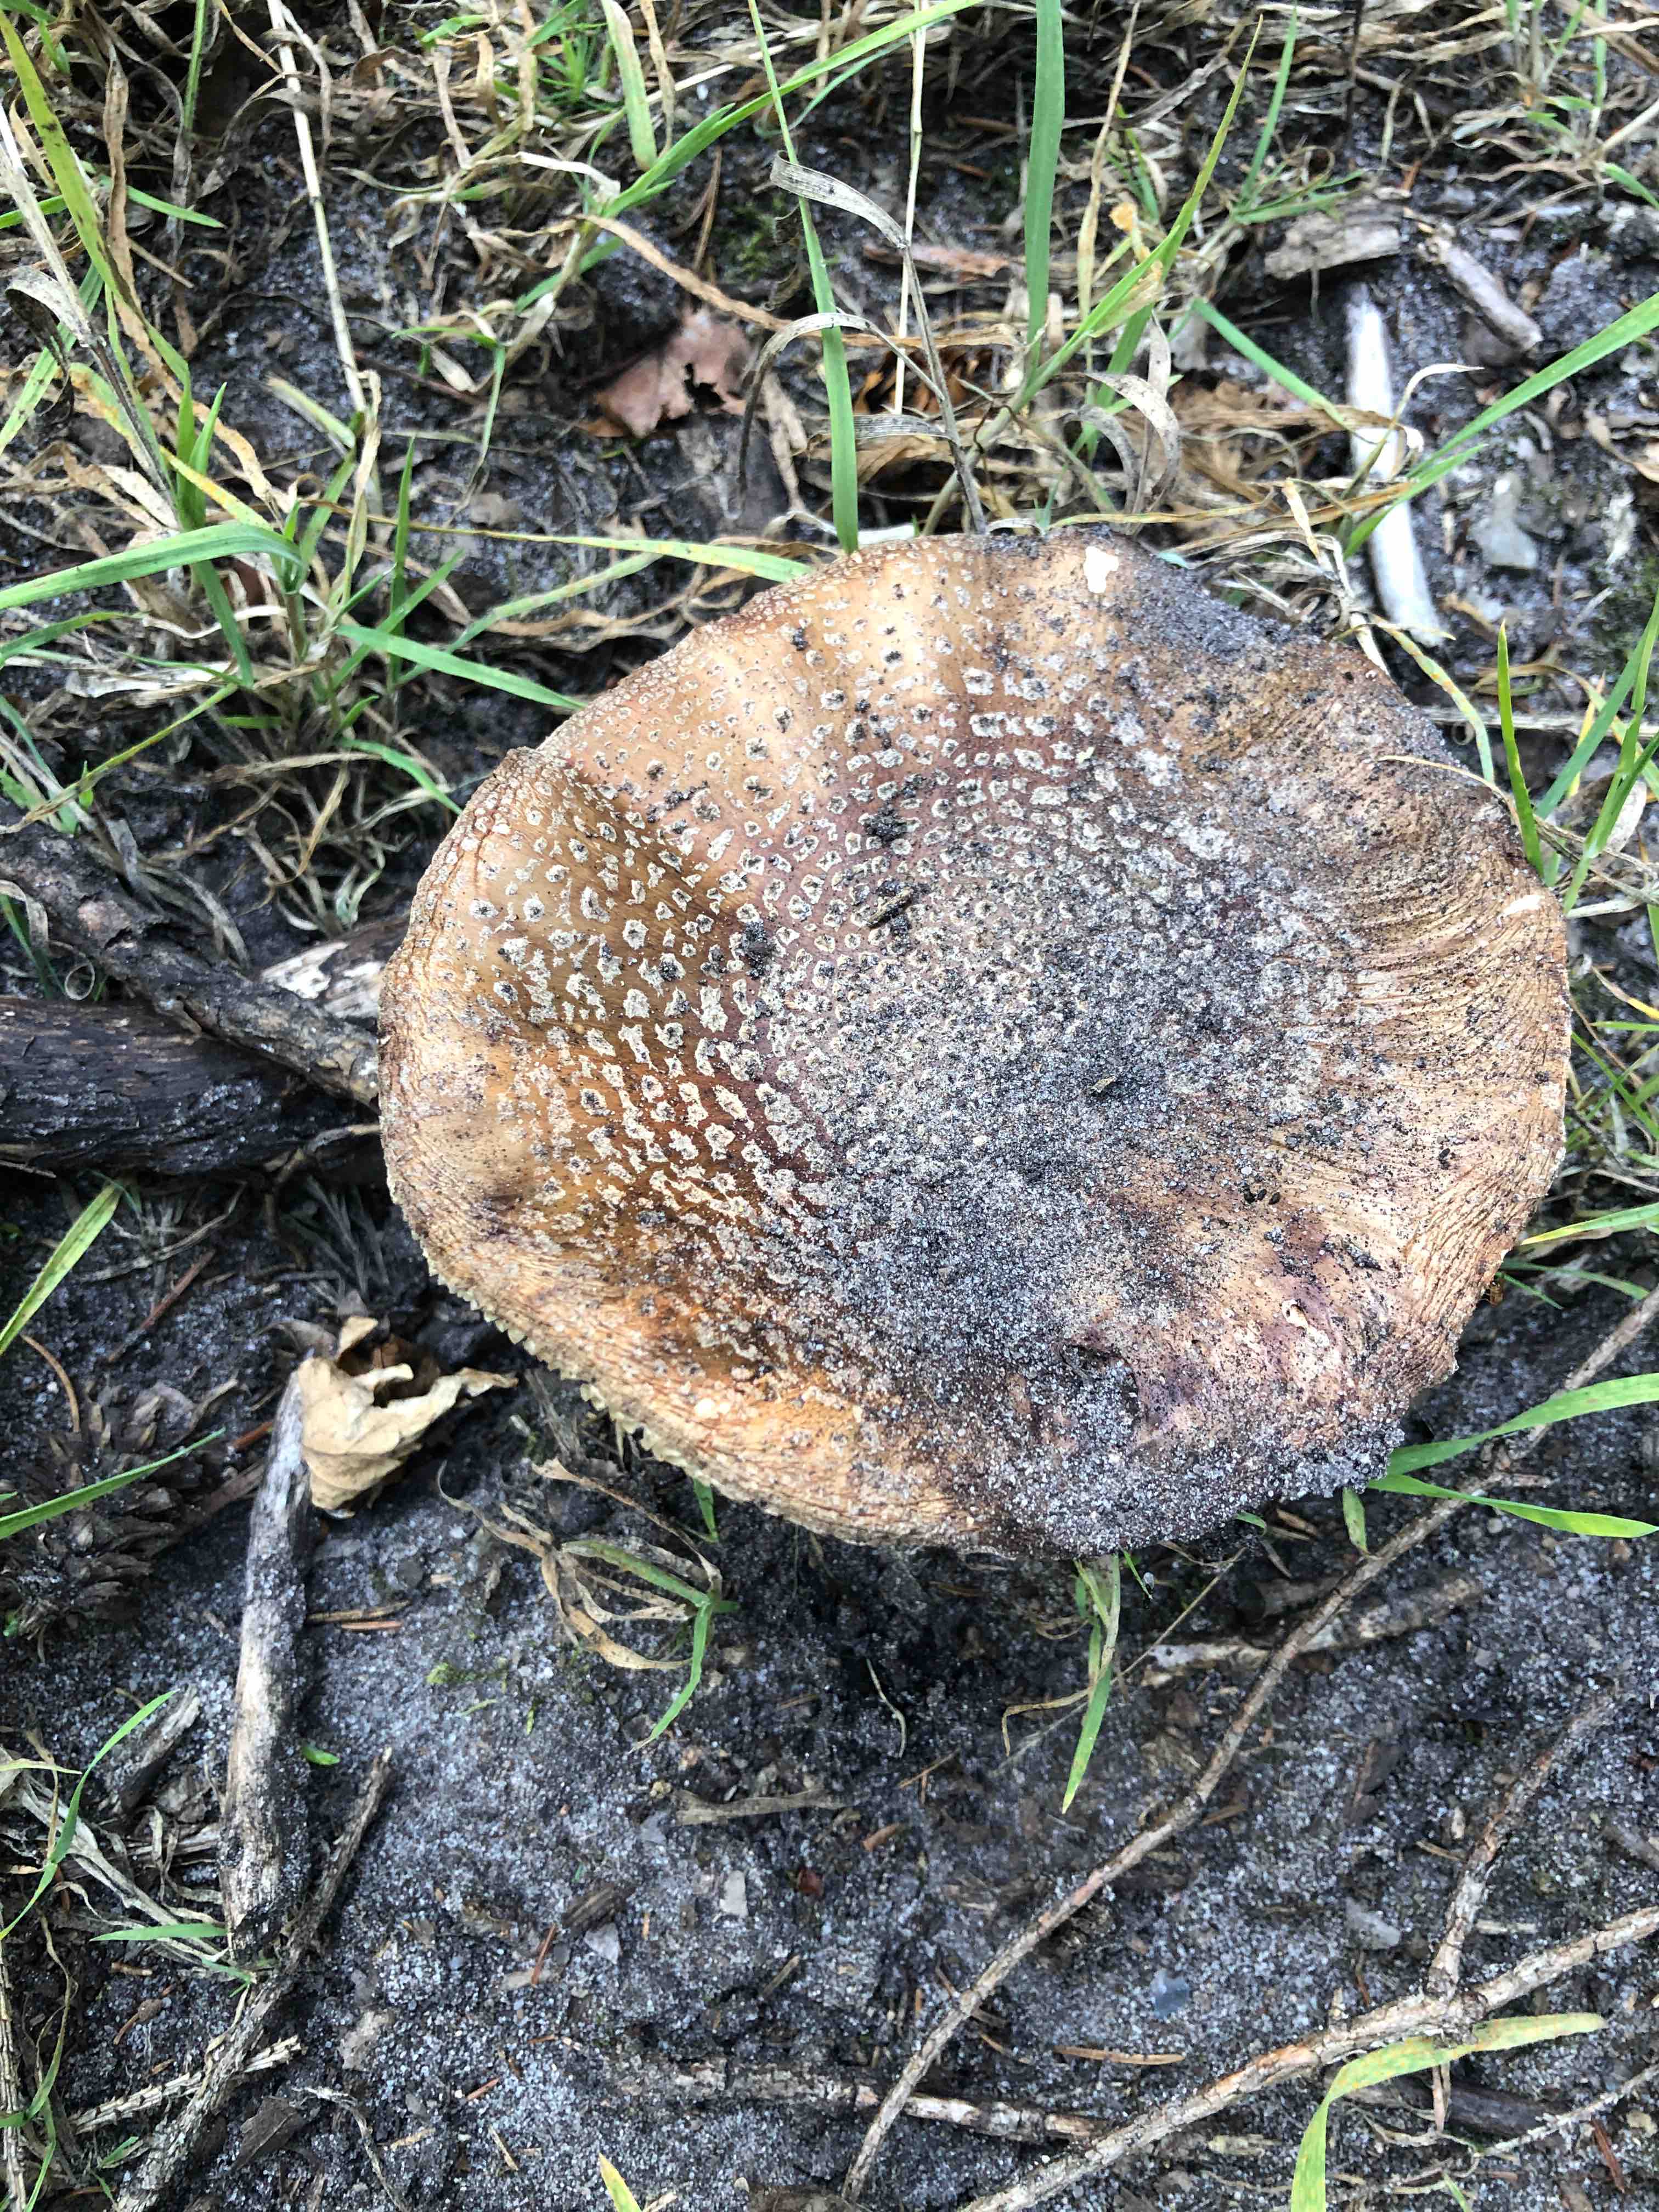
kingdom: Fungi
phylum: Basidiomycota
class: Agaricomycetes
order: Agaricales
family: Amanitaceae
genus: Amanita
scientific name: Amanita rubescens
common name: rødmende fluesvamp
